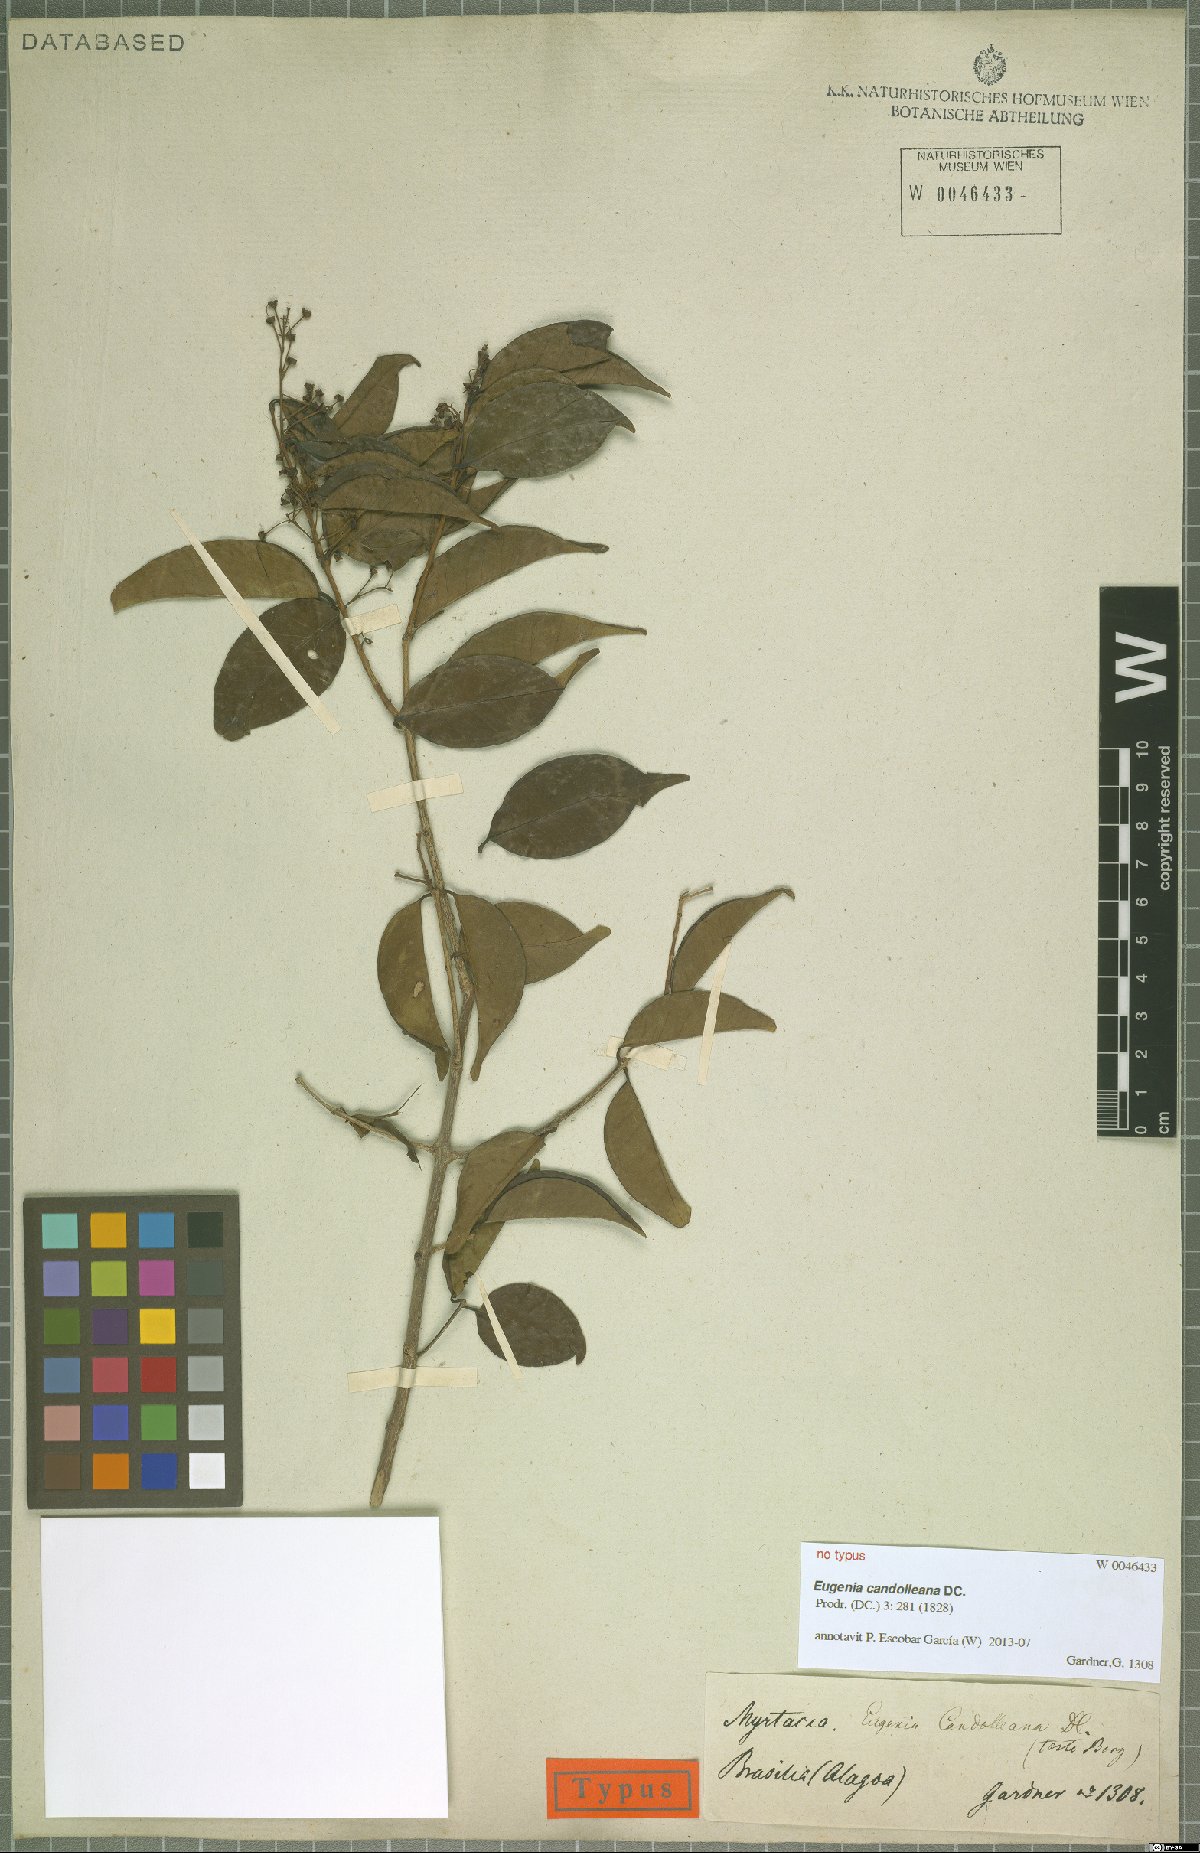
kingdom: Plantae
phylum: Tracheophyta
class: Magnoliopsida
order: Myrtales
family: Myrtaceae
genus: Eugenia
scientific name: Eugenia candolleana
